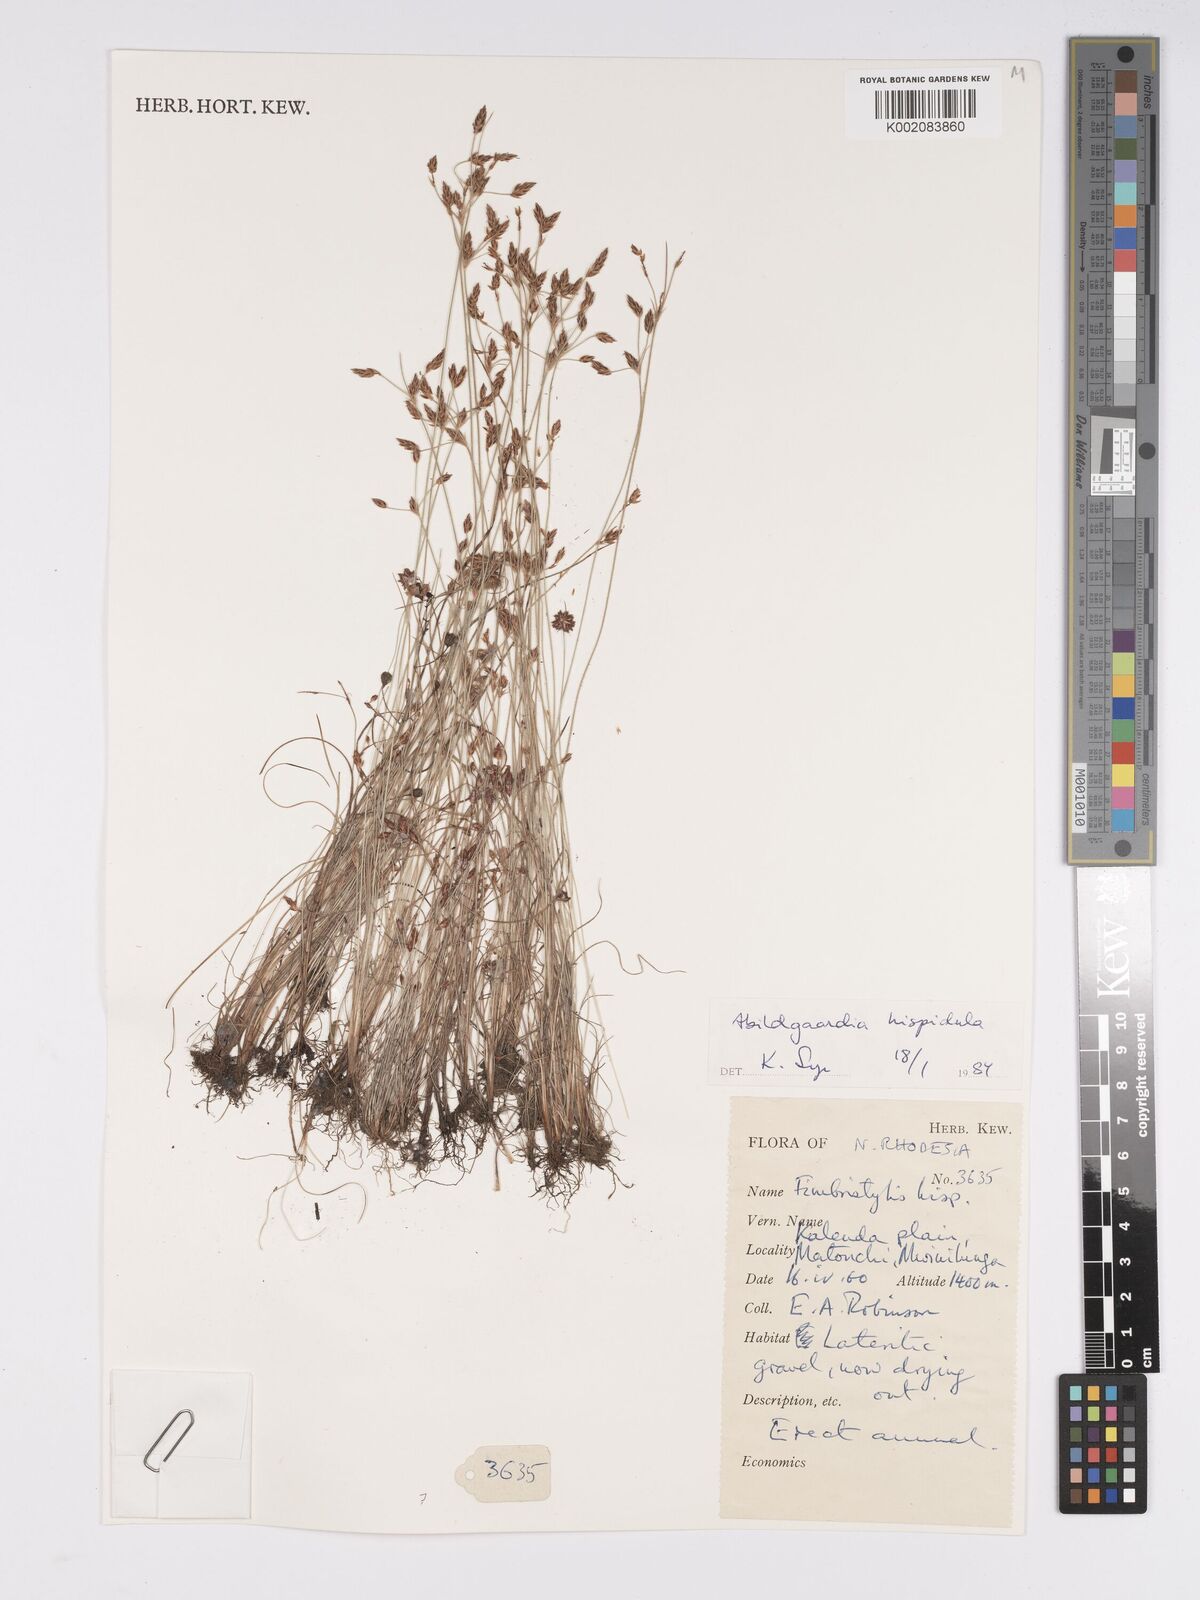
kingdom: Plantae
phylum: Tracheophyta
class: Liliopsida
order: Poales
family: Cyperaceae
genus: Bulbostylis
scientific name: Bulbostylis hispidula
